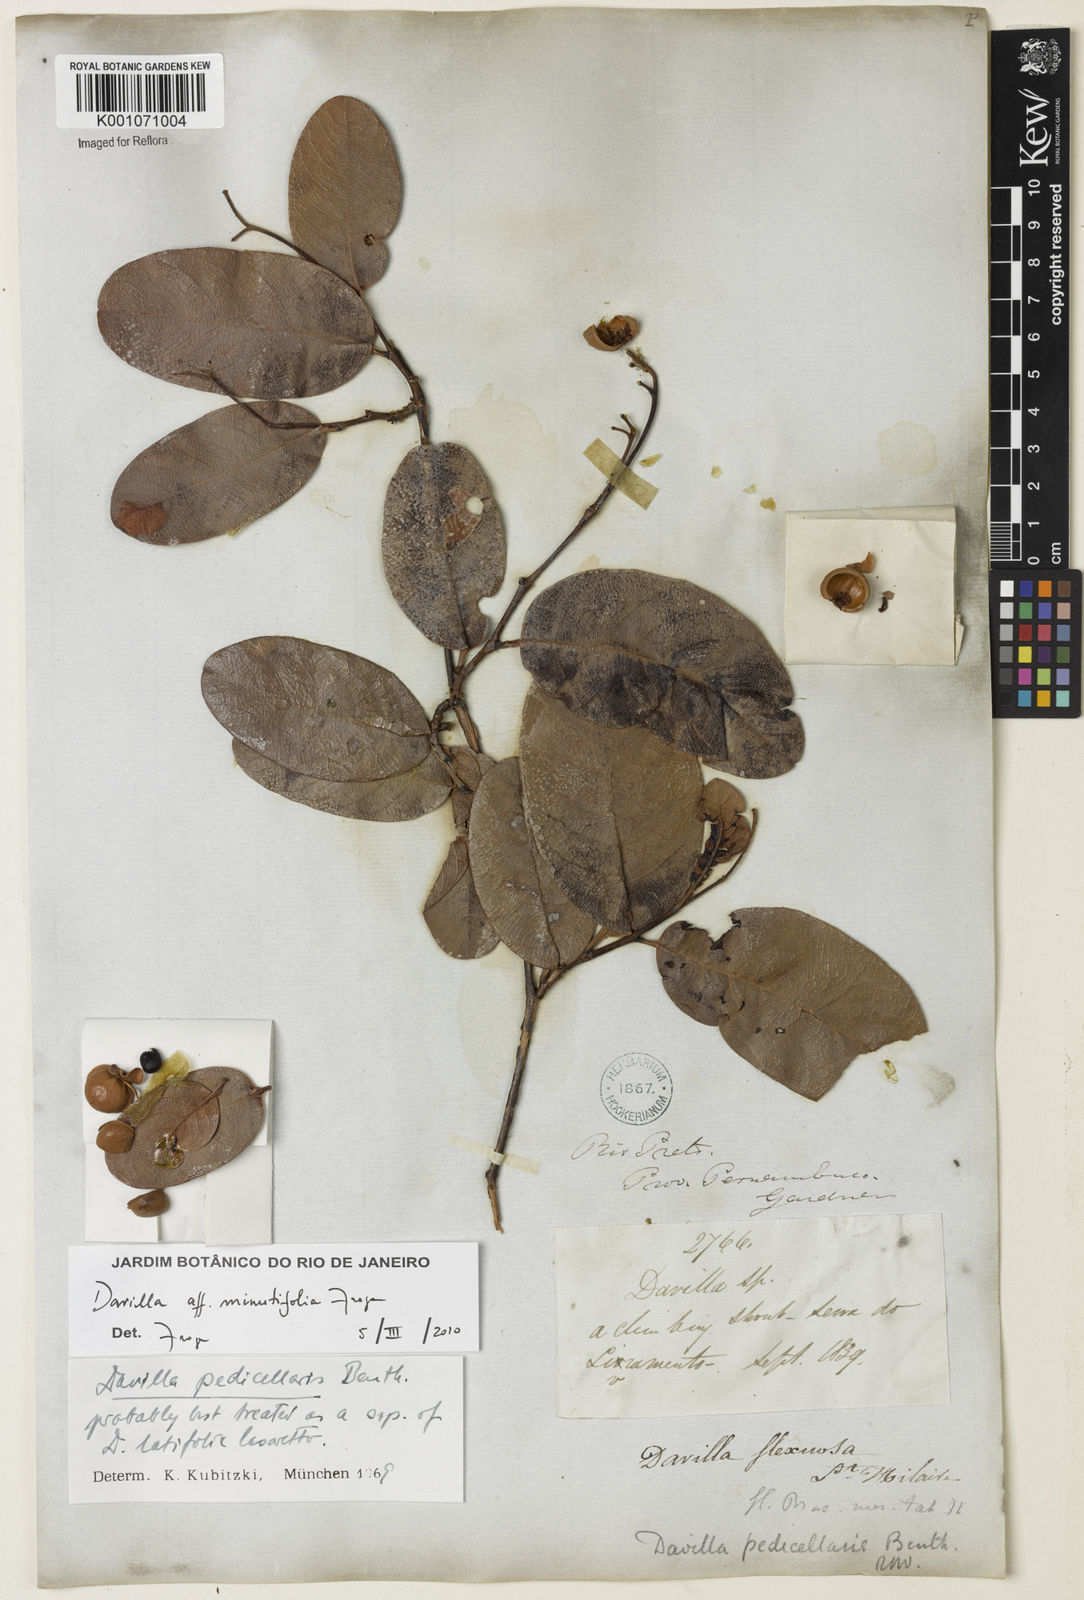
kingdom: Plantae
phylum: Tracheophyta
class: Magnoliopsida
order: Dilleniales
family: Dilleniaceae
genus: Davilla
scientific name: Davilla minutifolia
